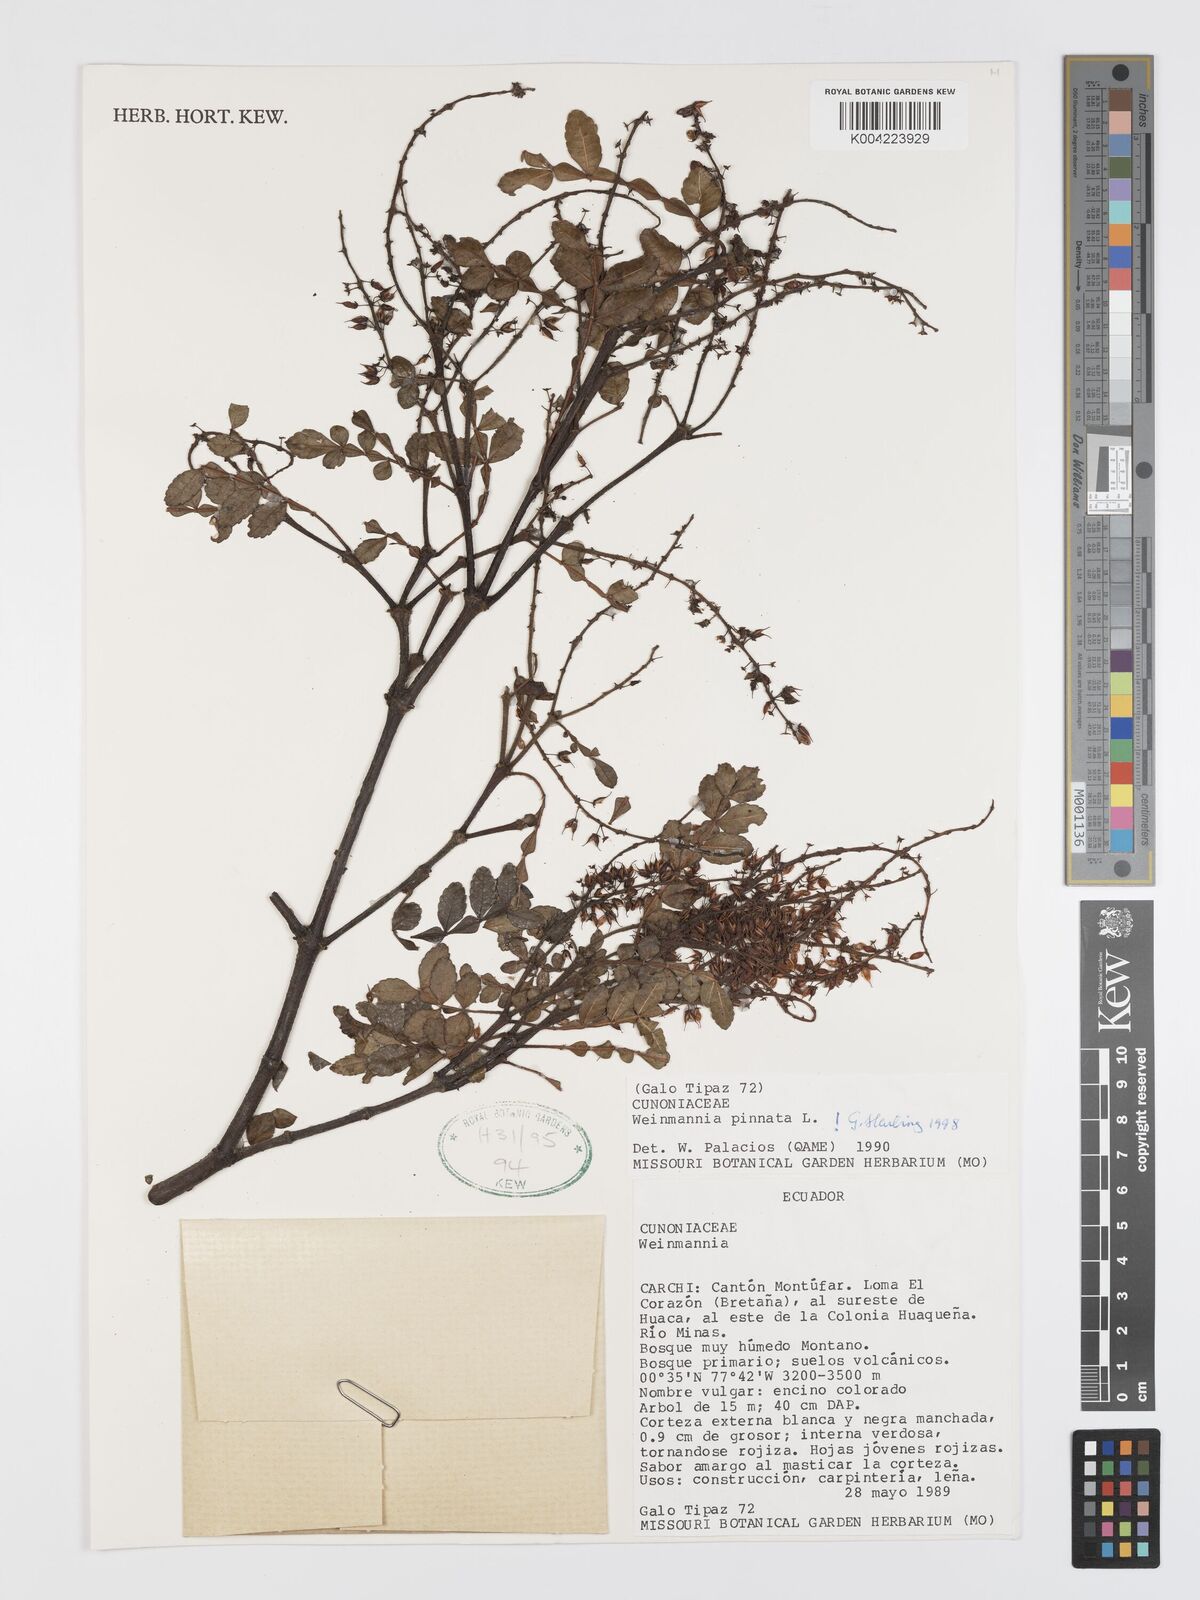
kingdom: Plantae
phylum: Tracheophyta
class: Magnoliopsida
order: Oxalidales
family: Cunoniaceae
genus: Weinmannia
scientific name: Weinmannia pinnata
